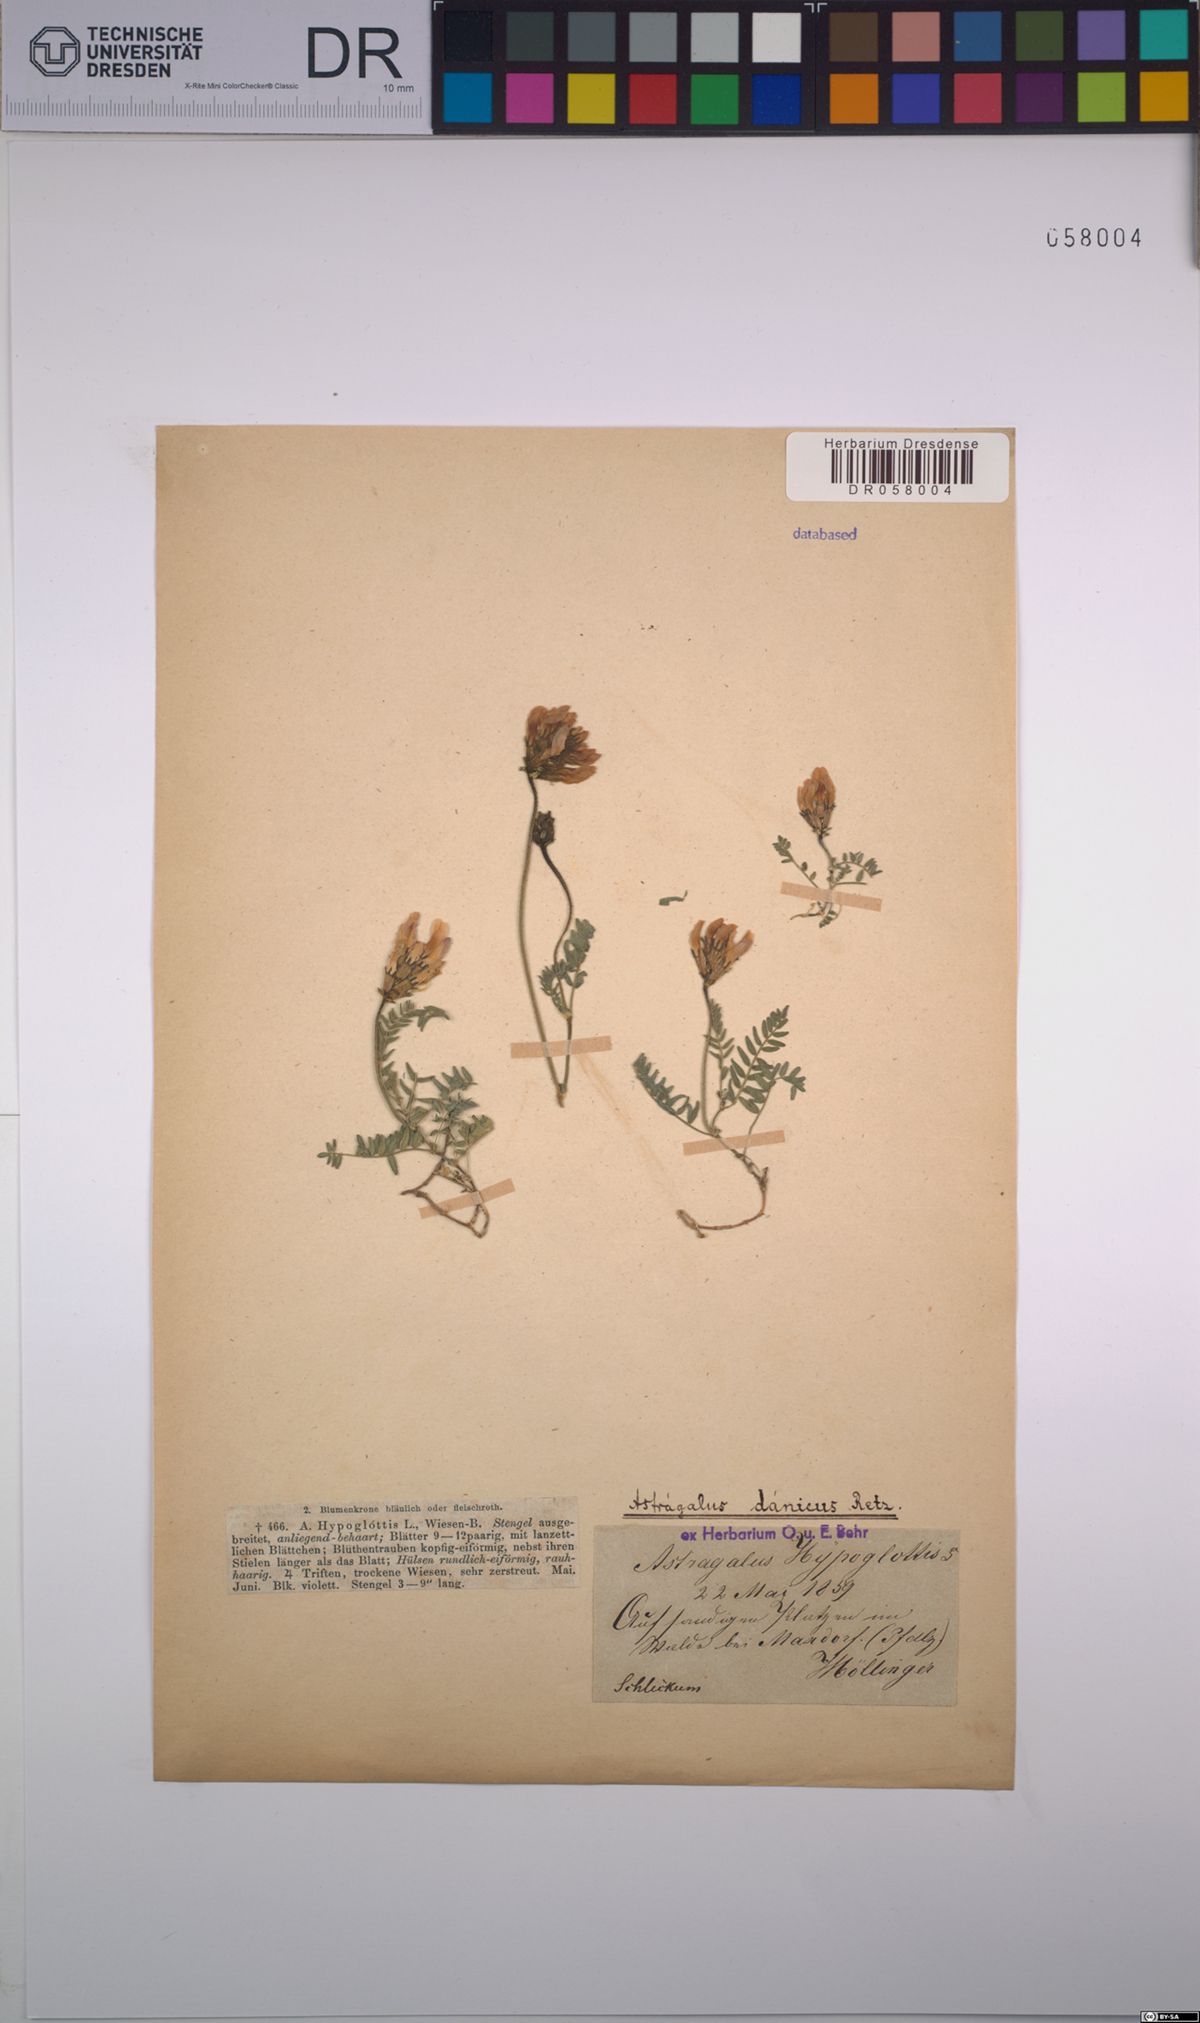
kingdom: Plantae
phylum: Tracheophyta
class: Magnoliopsida
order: Fabales
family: Fabaceae
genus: Astragalus
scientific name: Astragalus danicus
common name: Purple milk-vetch
